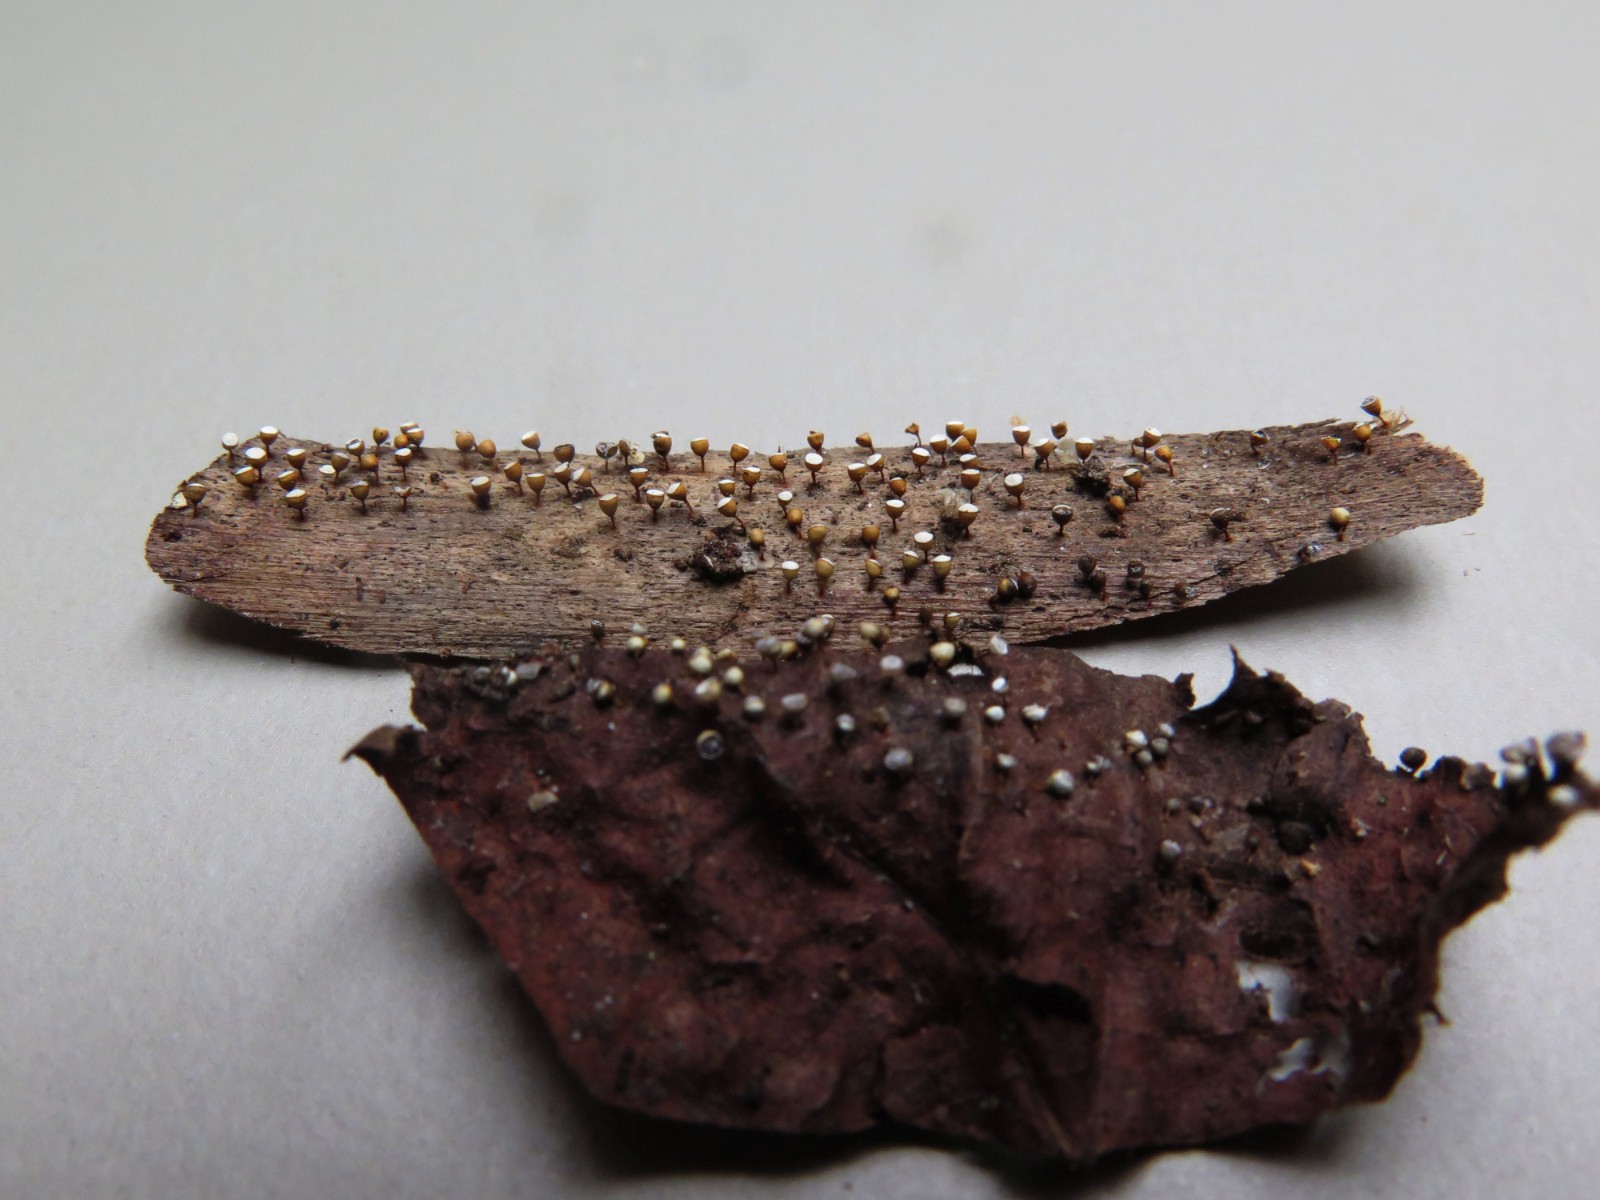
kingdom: Protozoa
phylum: Mycetozoa
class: Myxomycetes
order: Physarales
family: Physaraceae
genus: Craterium
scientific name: Craterium minutum
